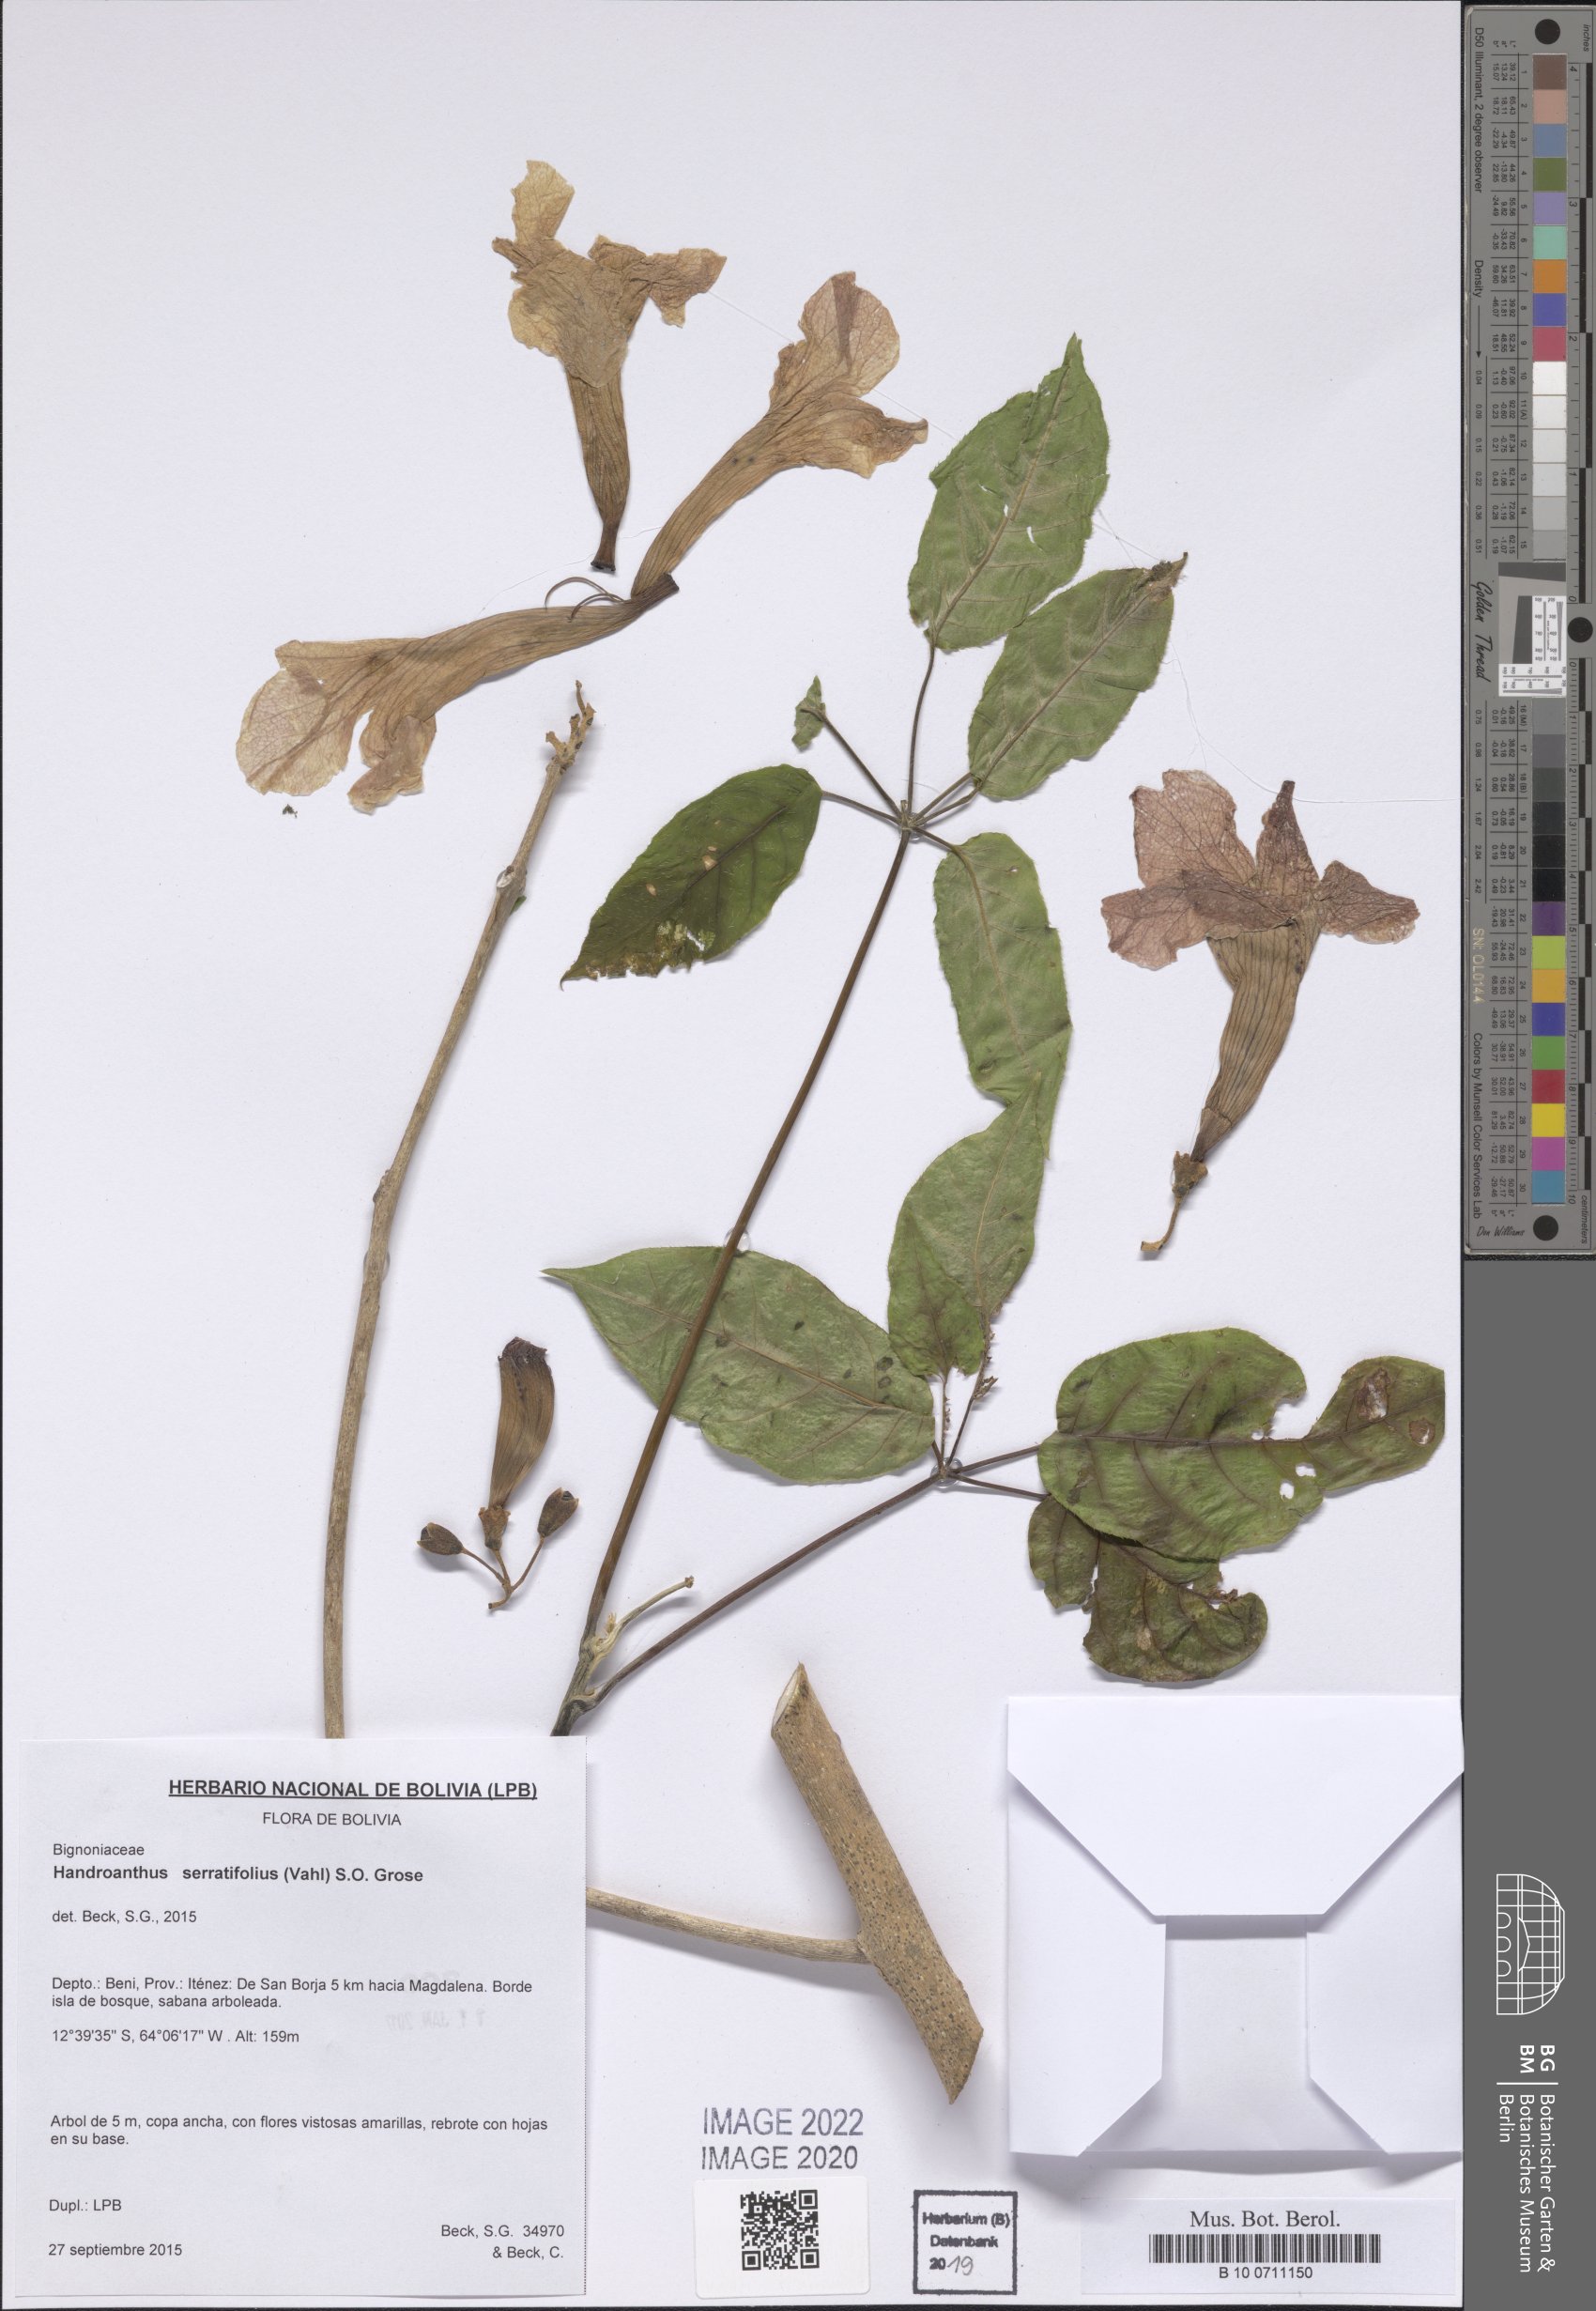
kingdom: Plantae
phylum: Tracheophyta
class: Magnoliopsida
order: Lamiales
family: Bignoniaceae
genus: Handroanthus
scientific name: Handroanthus serratifolius
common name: Yellow ipe
